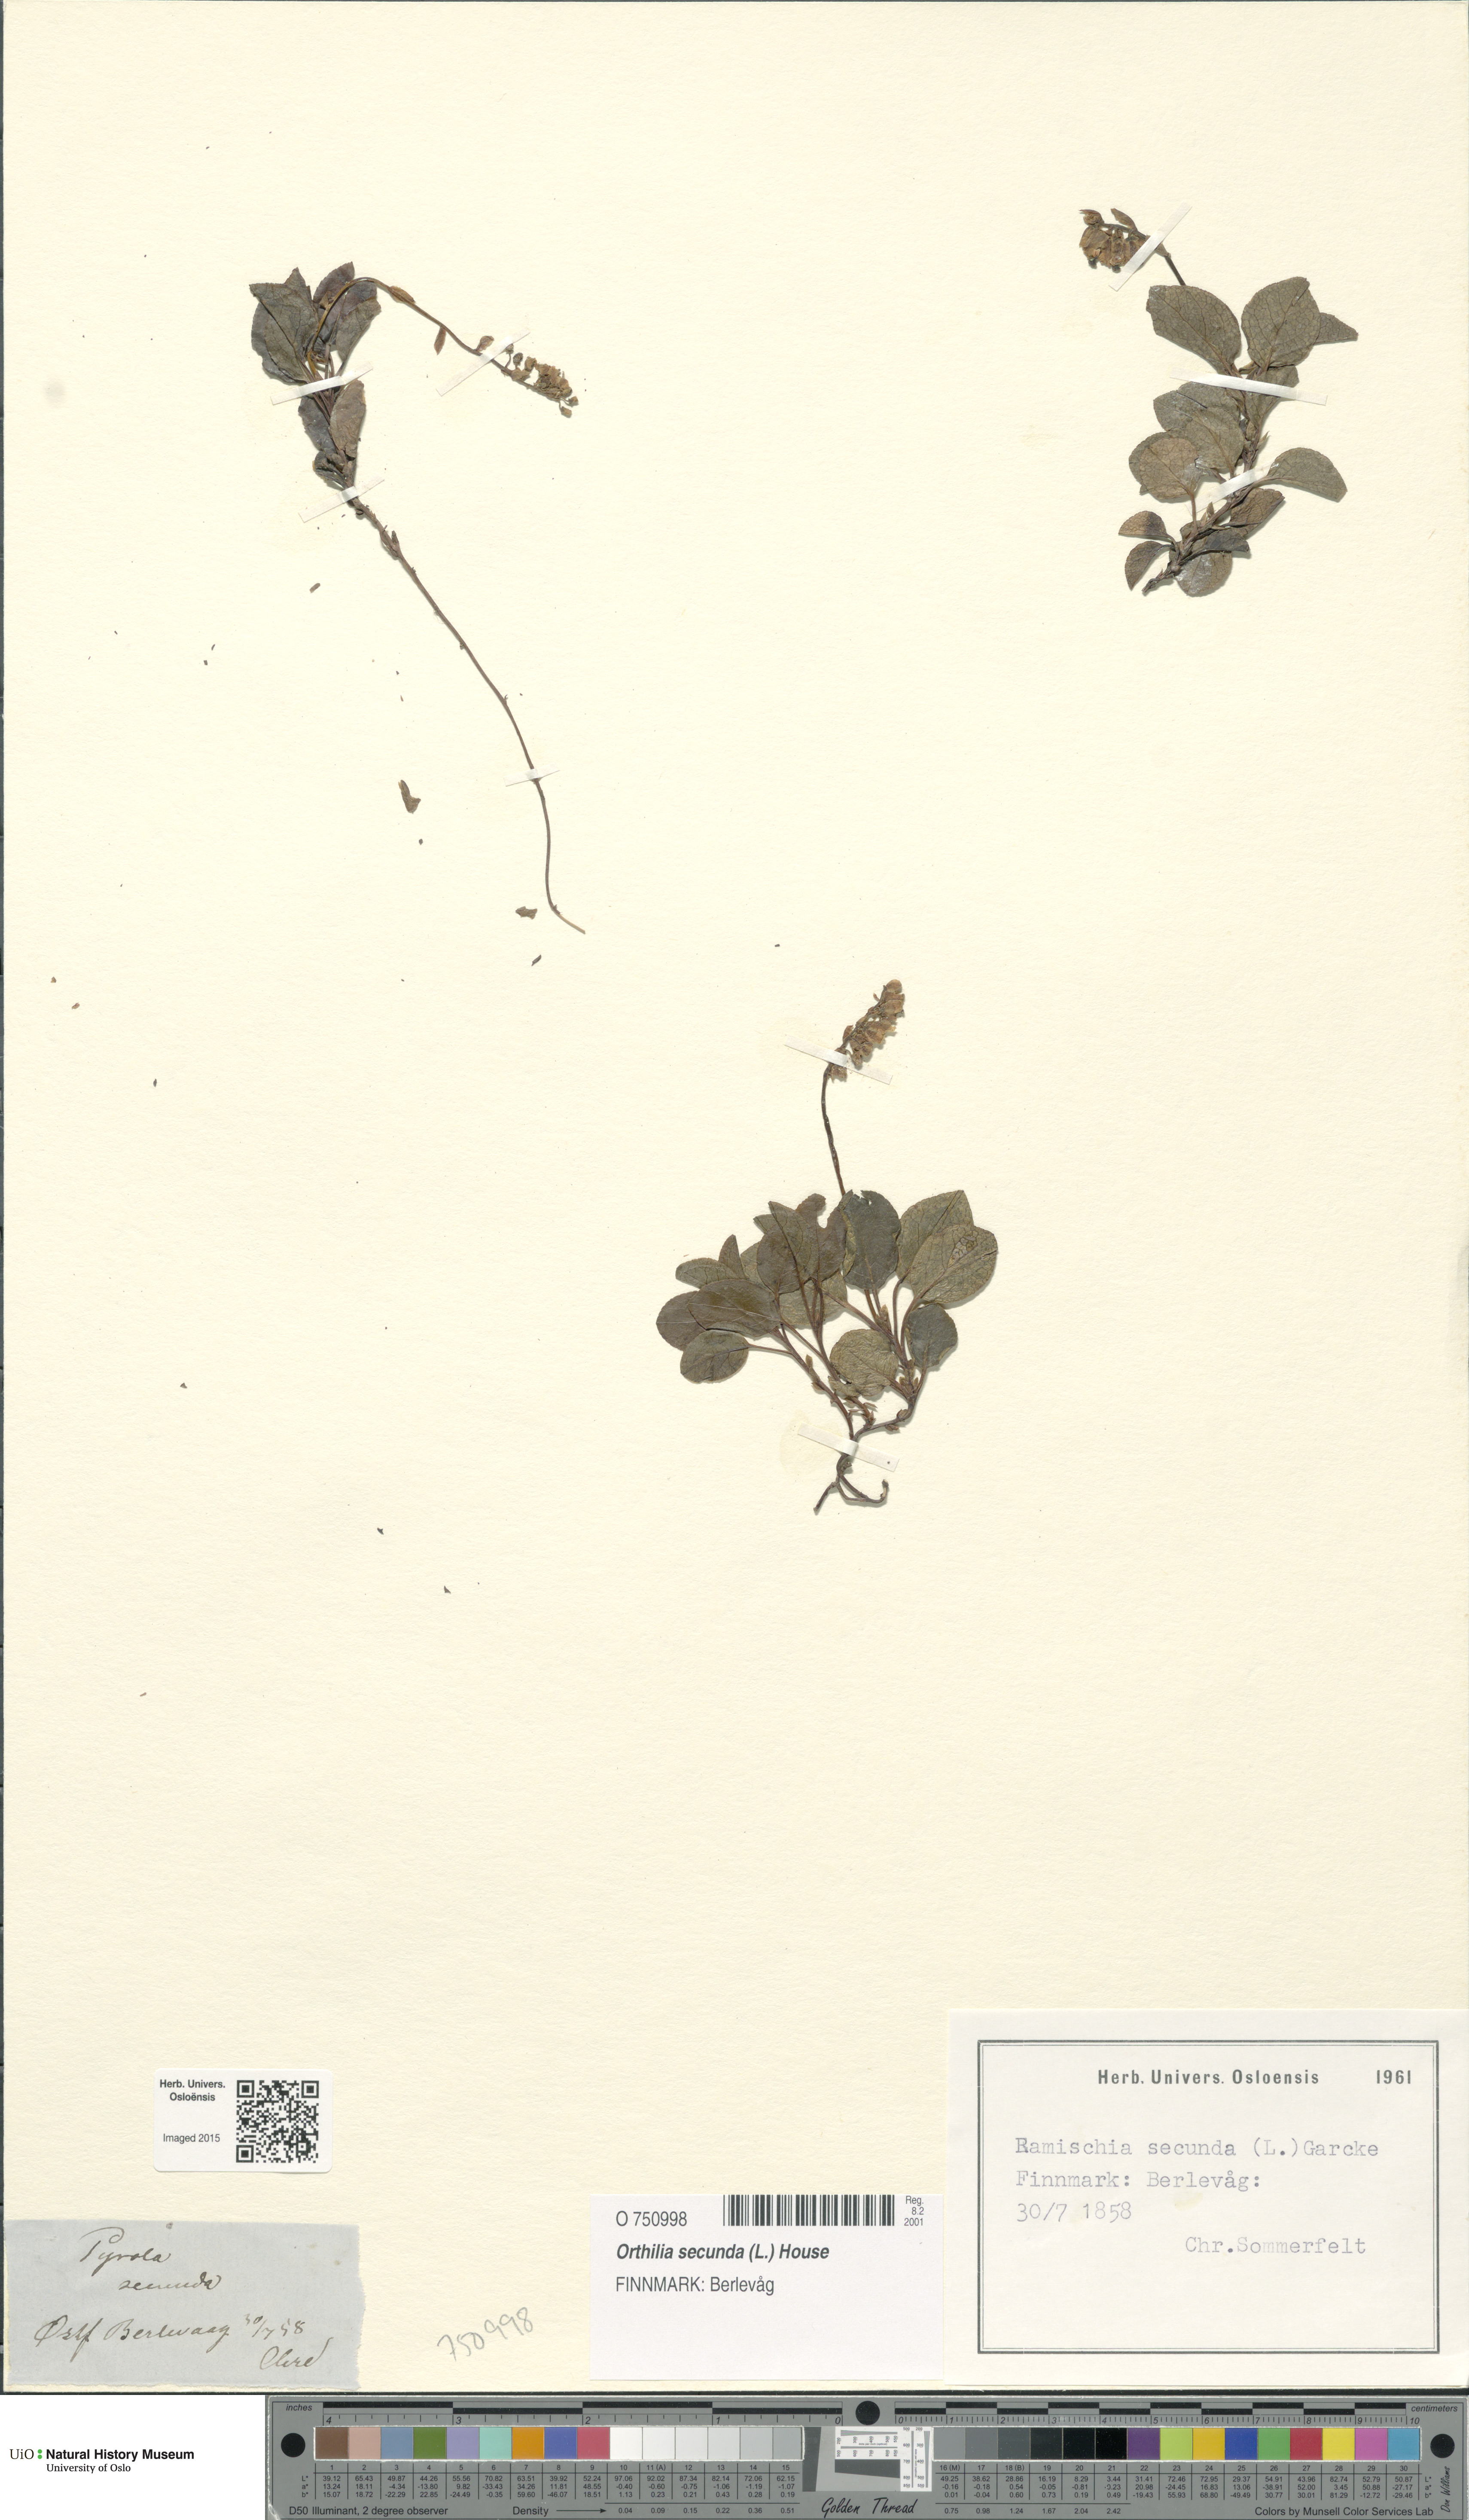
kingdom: Plantae
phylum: Tracheophyta
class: Magnoliopsida
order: Ericales
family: Ericaceae
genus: Orthilia
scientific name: Orthilia secunda
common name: One-sided orthilia
